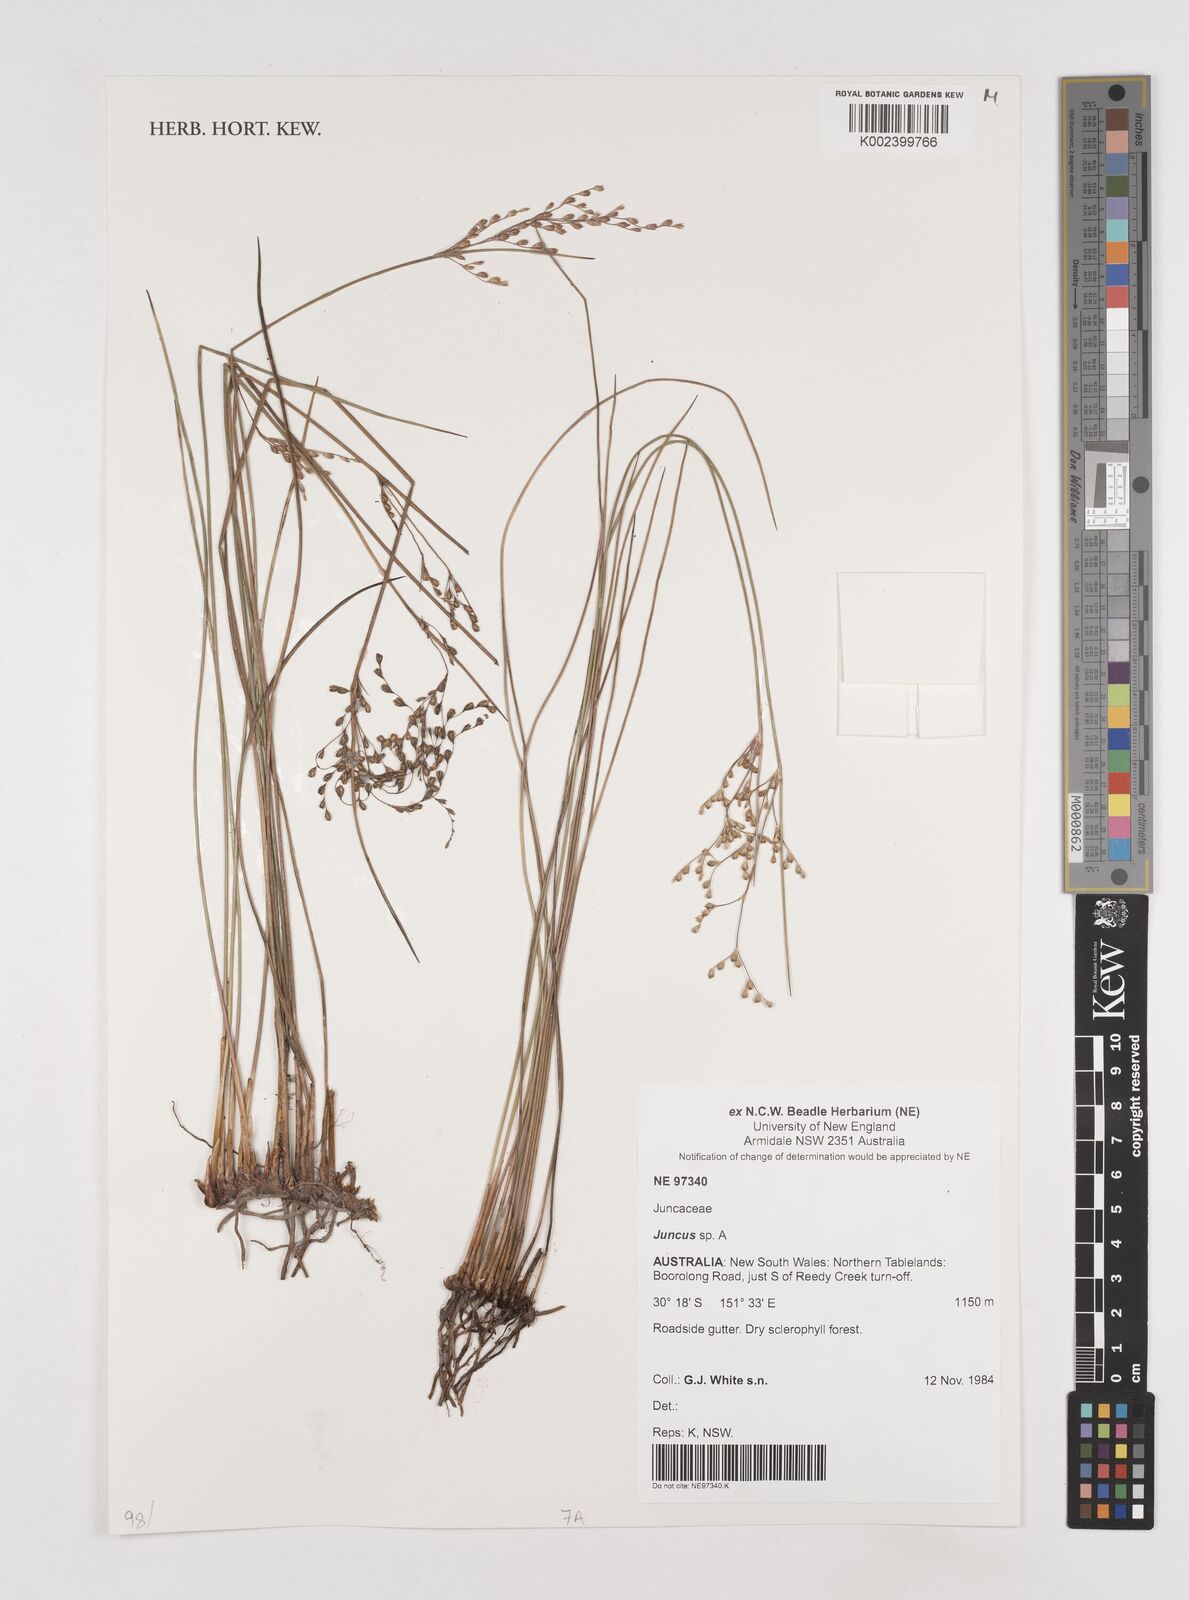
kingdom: Plantae
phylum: Tracheophyta
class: Liliopsida
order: Poales
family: Juncaceae
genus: Juncus
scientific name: Juncus
